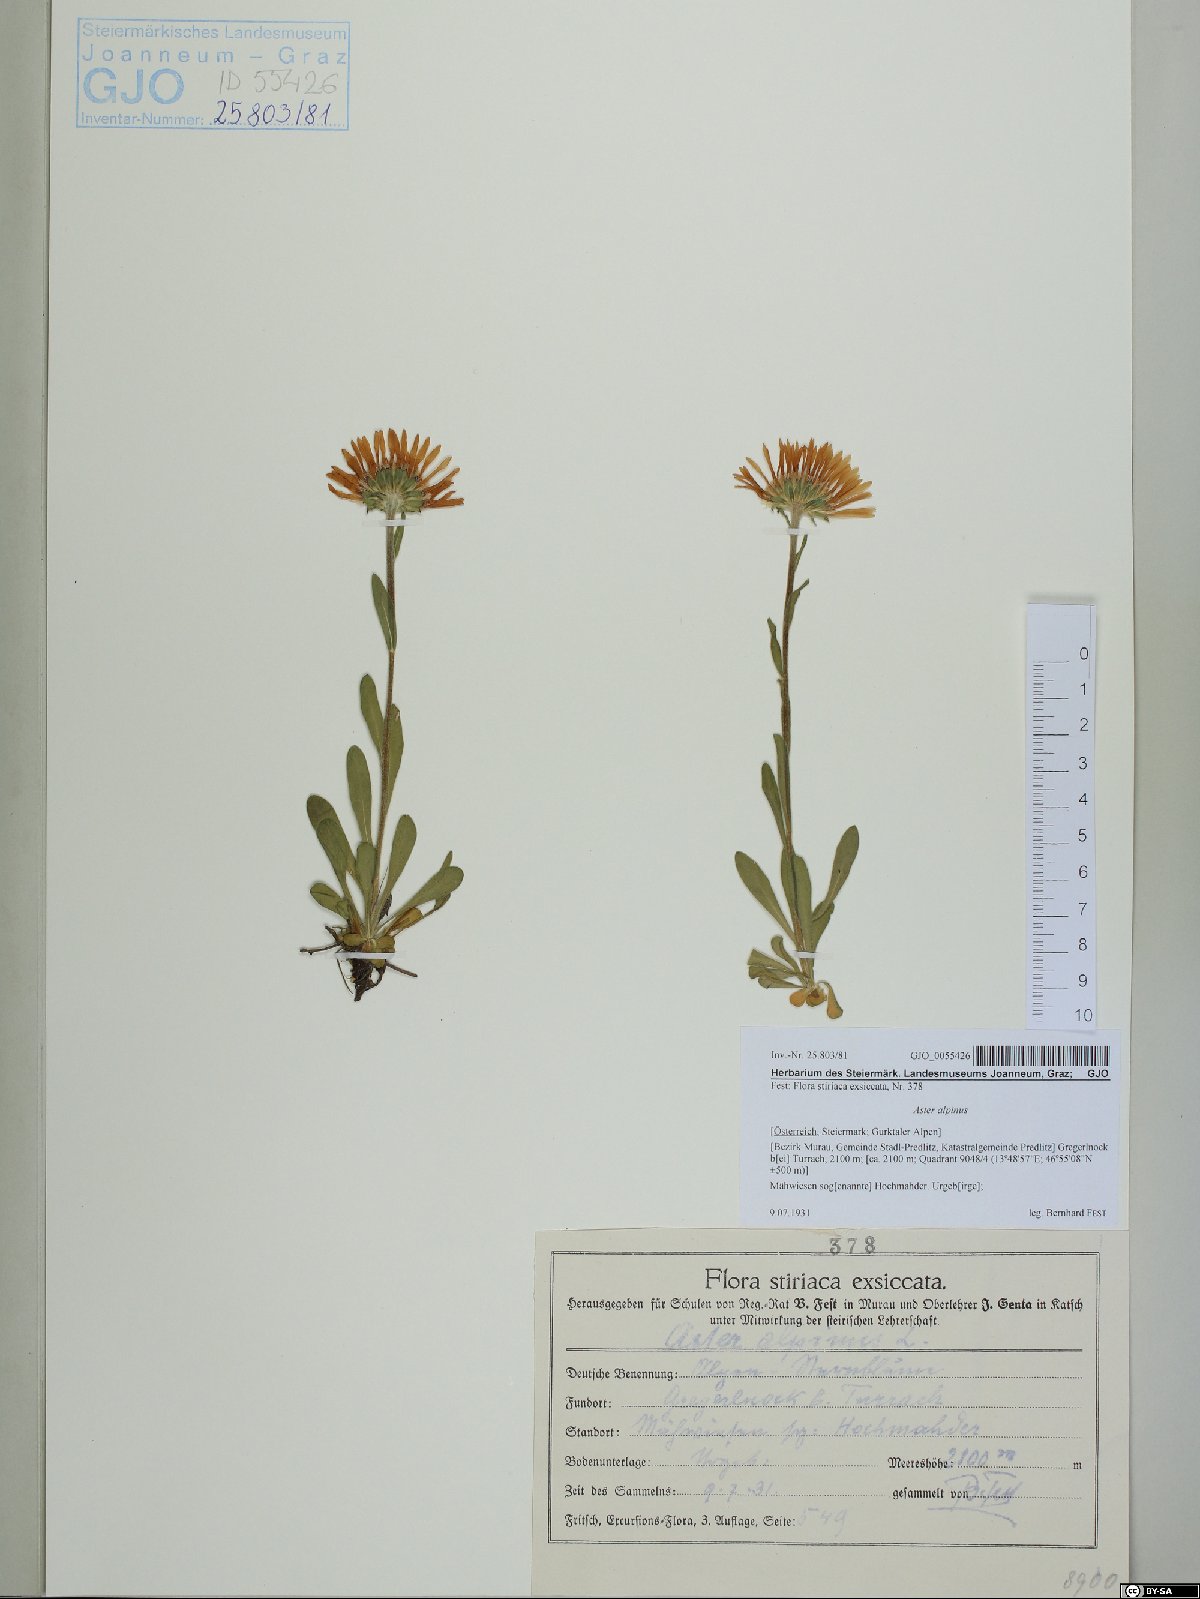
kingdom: Plantae
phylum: Tracheophyta
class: Magnoliopsida
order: Asterales
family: Asteraceae
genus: Aster
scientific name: Aster alpinus
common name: Alpine aster
